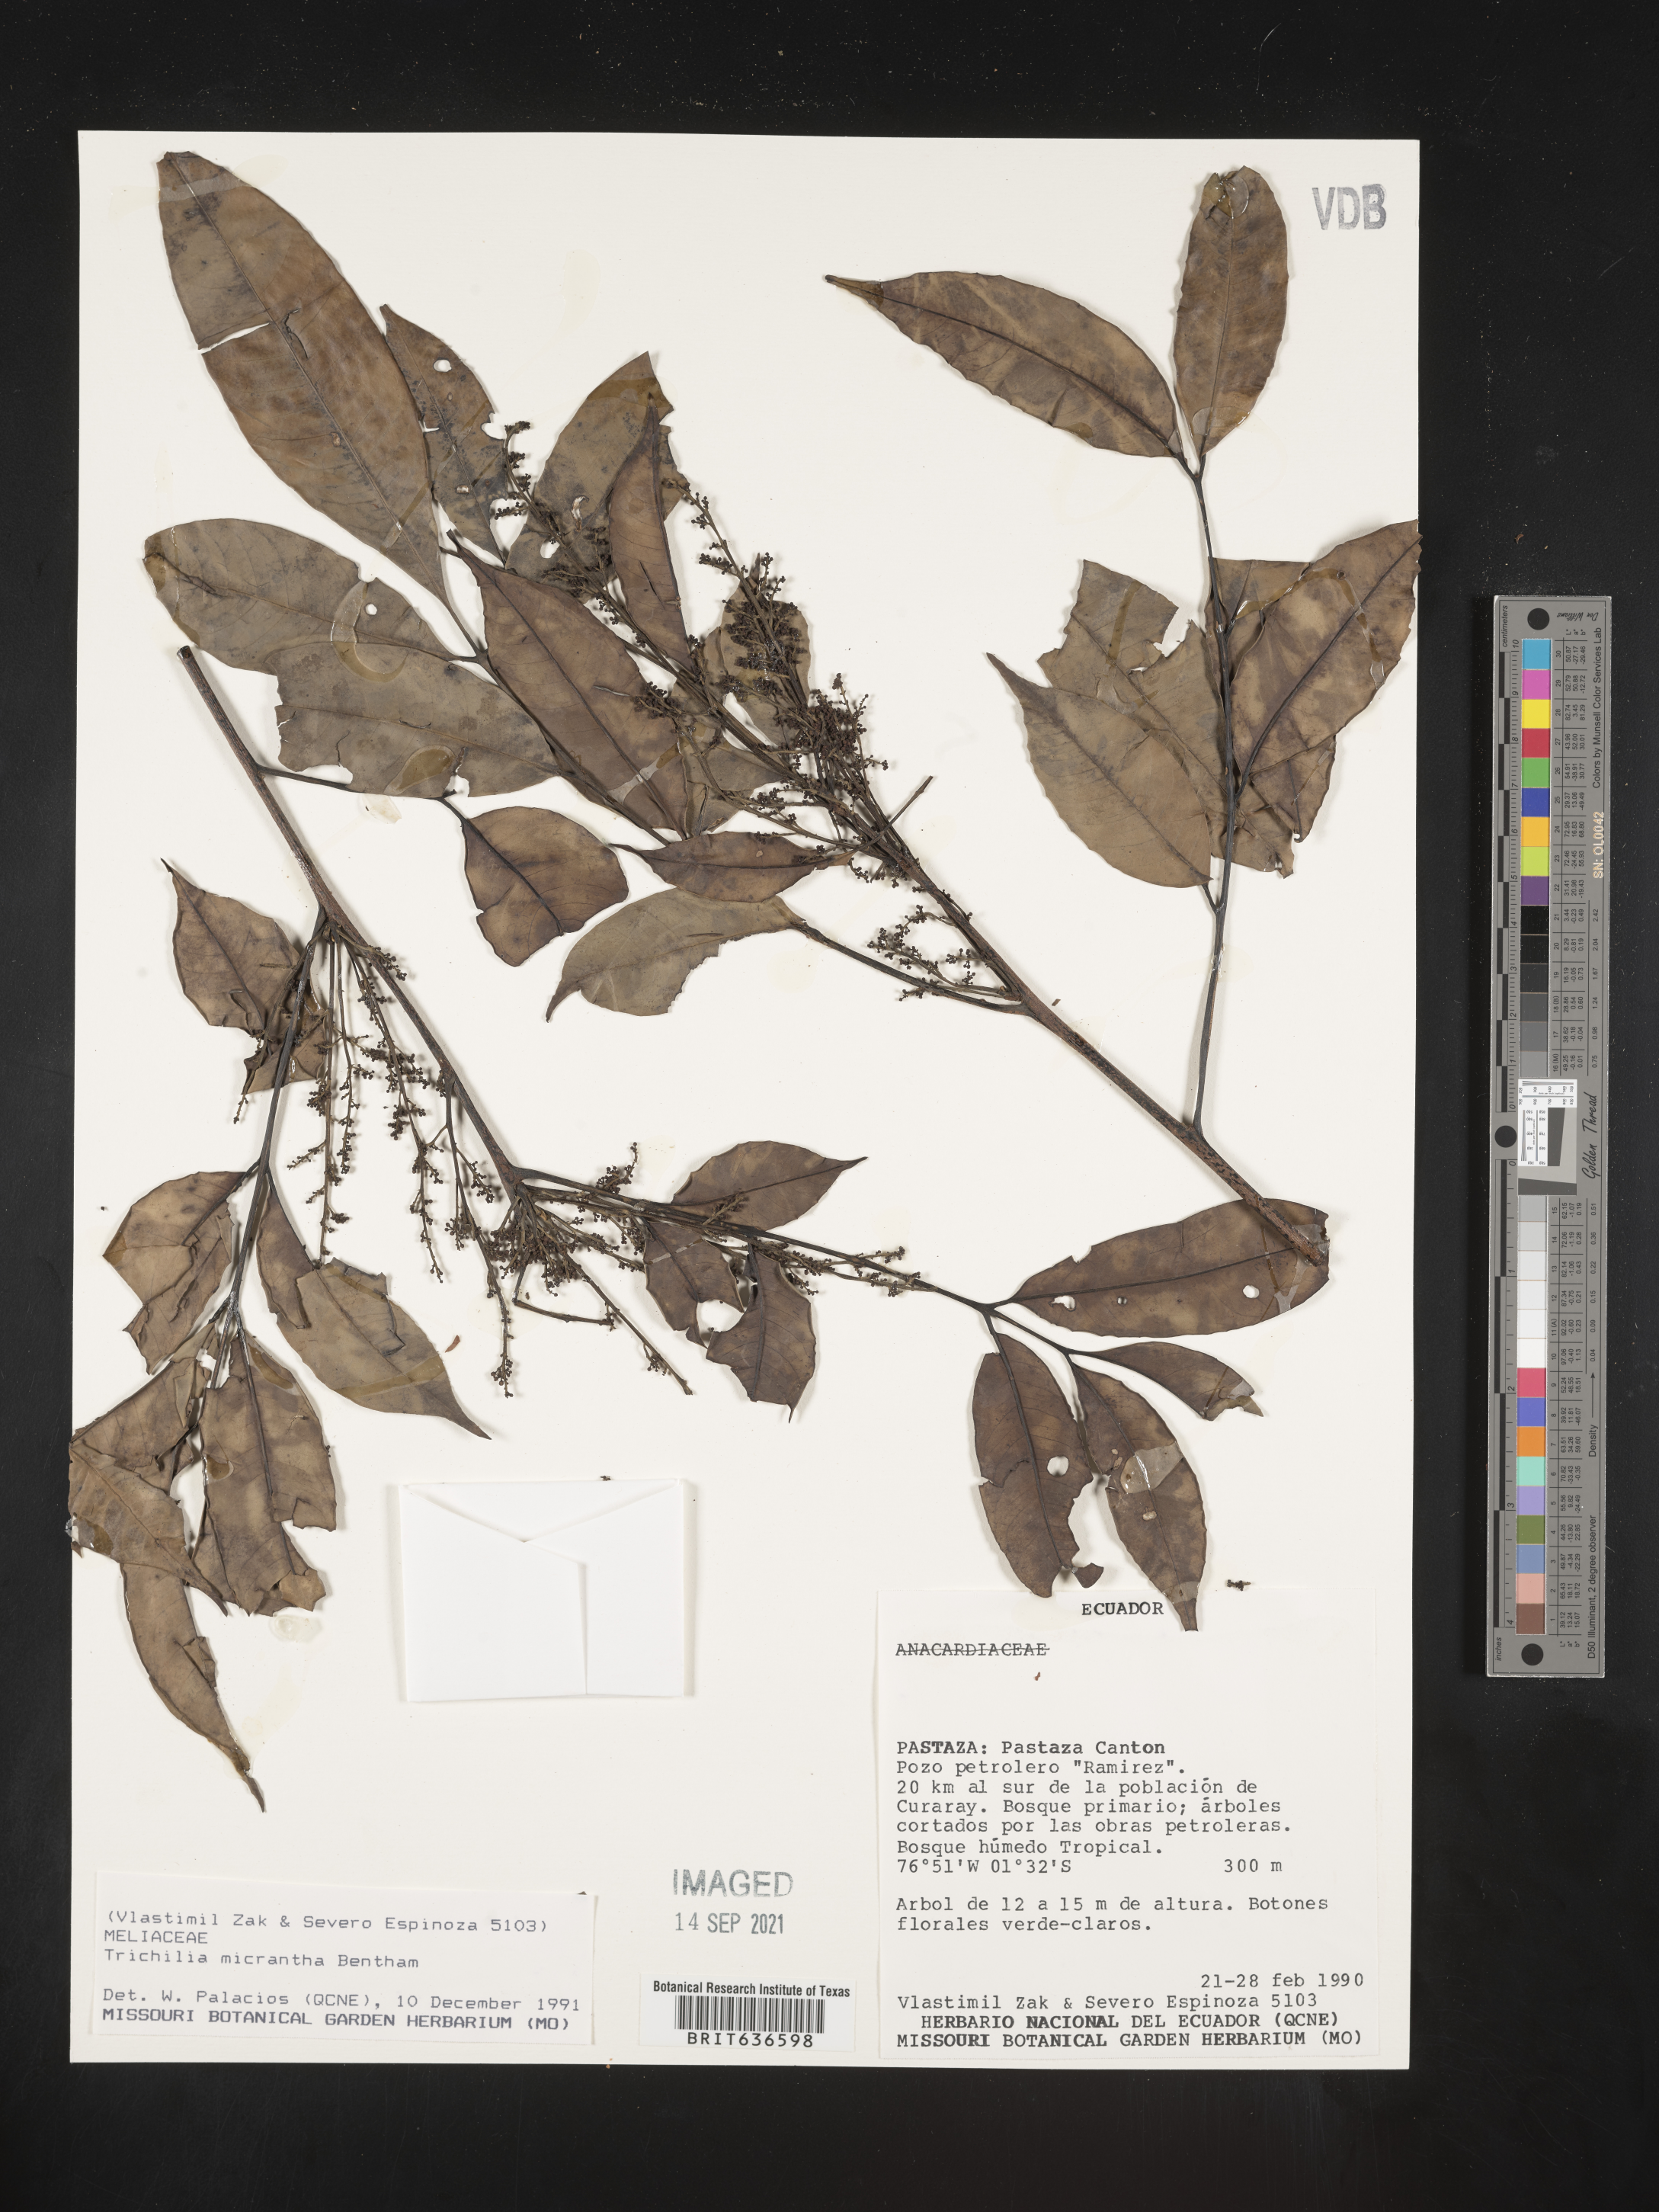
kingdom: Plantae
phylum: Tracheophyta
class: Magnoliopsida
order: Sapindales
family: Meliaceae
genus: Trichilia
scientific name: Trichilia
